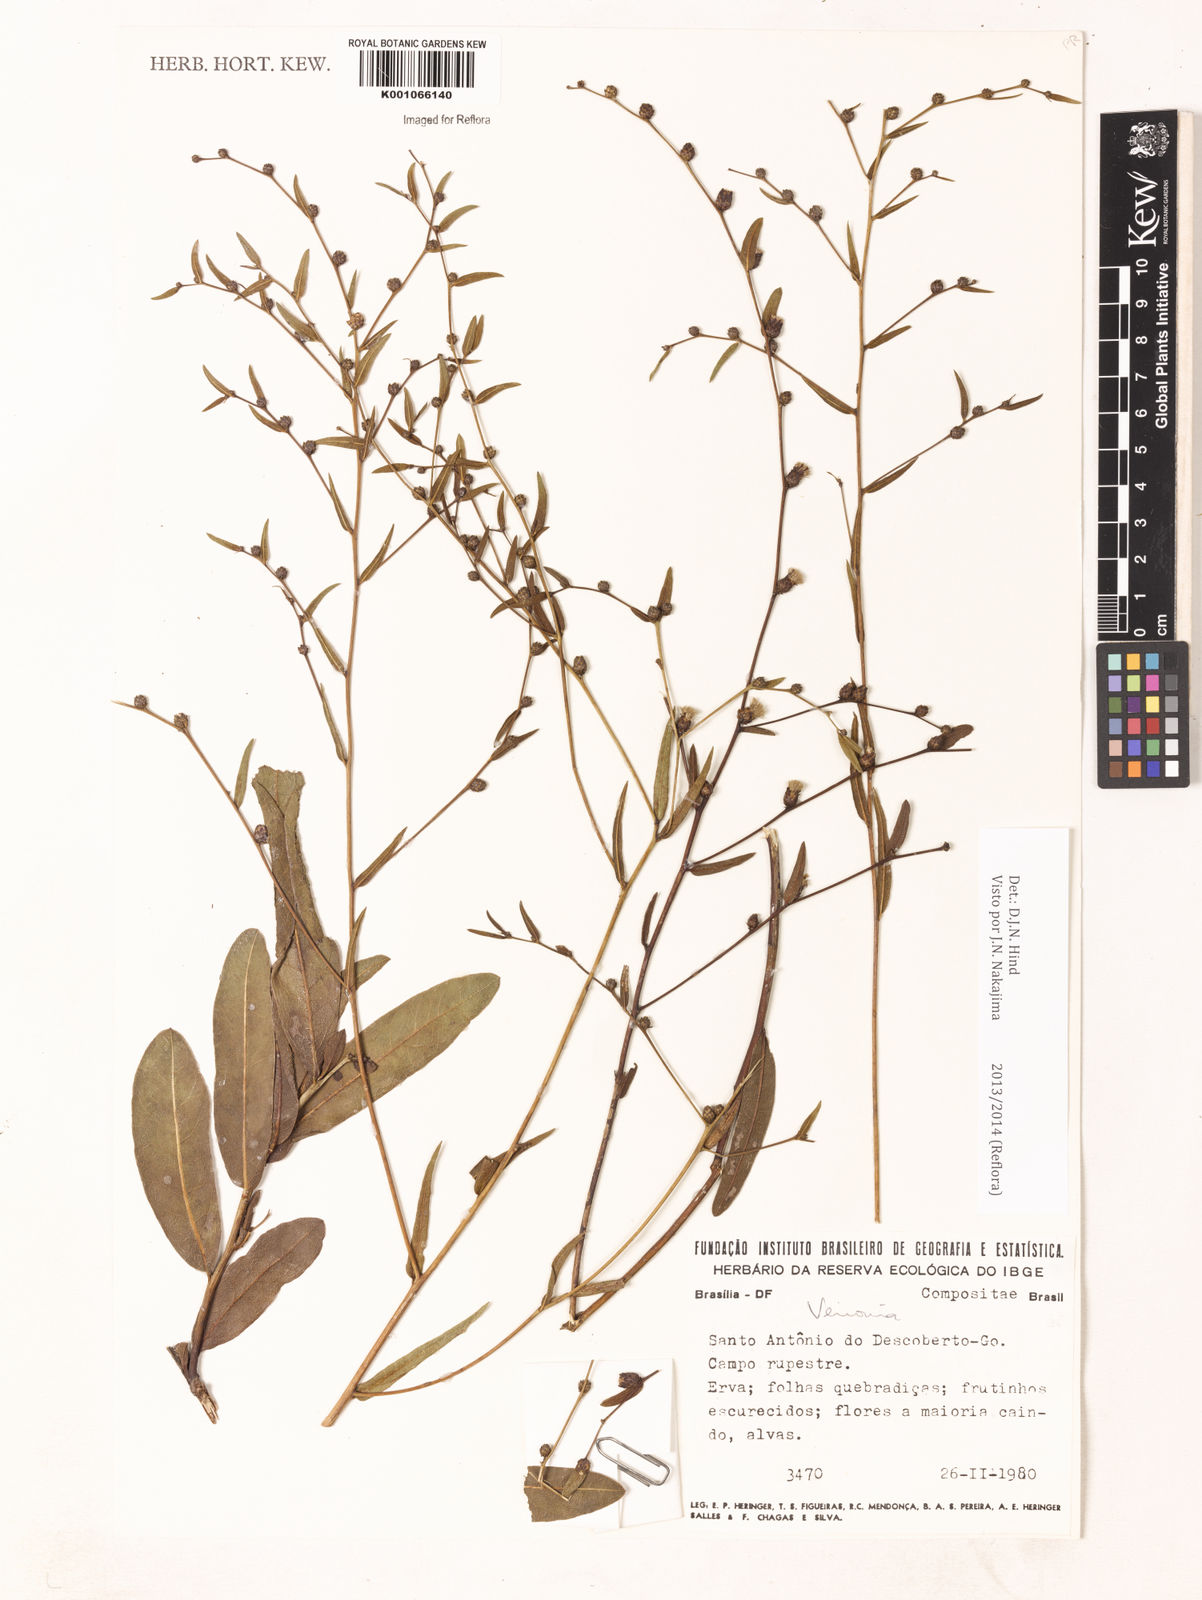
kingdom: Plantae
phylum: Tracheophyta
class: Magnoliopsida
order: Asterales
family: Asteraceae
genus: Lessingianthus
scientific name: Lessingianthus laevigatus
